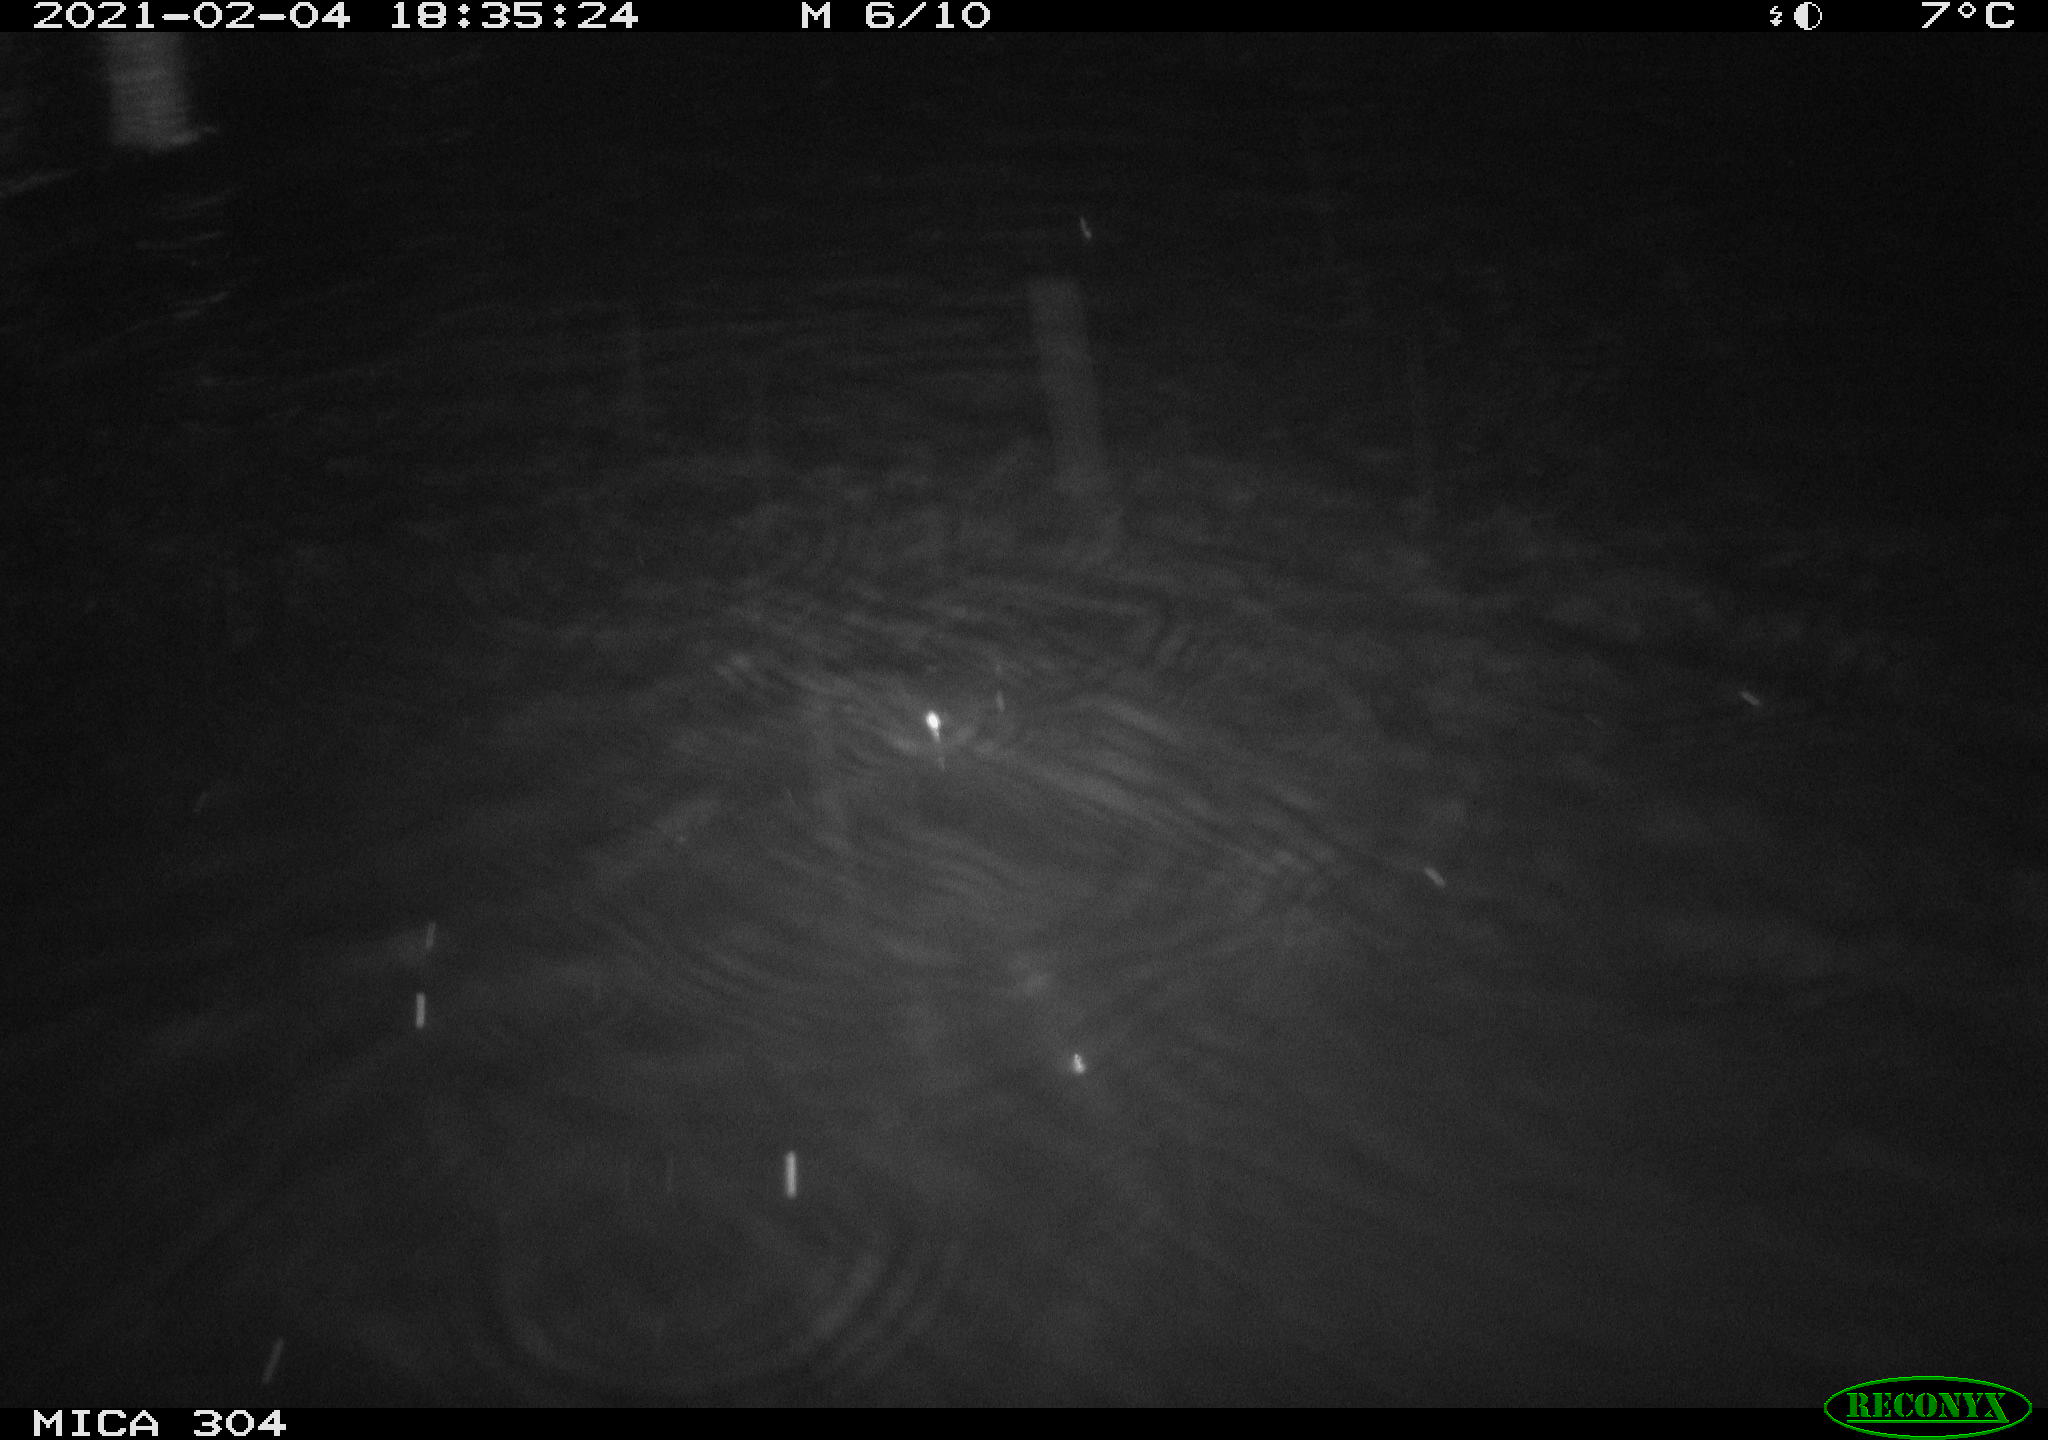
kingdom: Animalia
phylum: Chordata
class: Mammalia
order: Rodentia
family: Cricetidae
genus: Ondatra
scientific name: Ondatra zibethicus
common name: Muskrat
